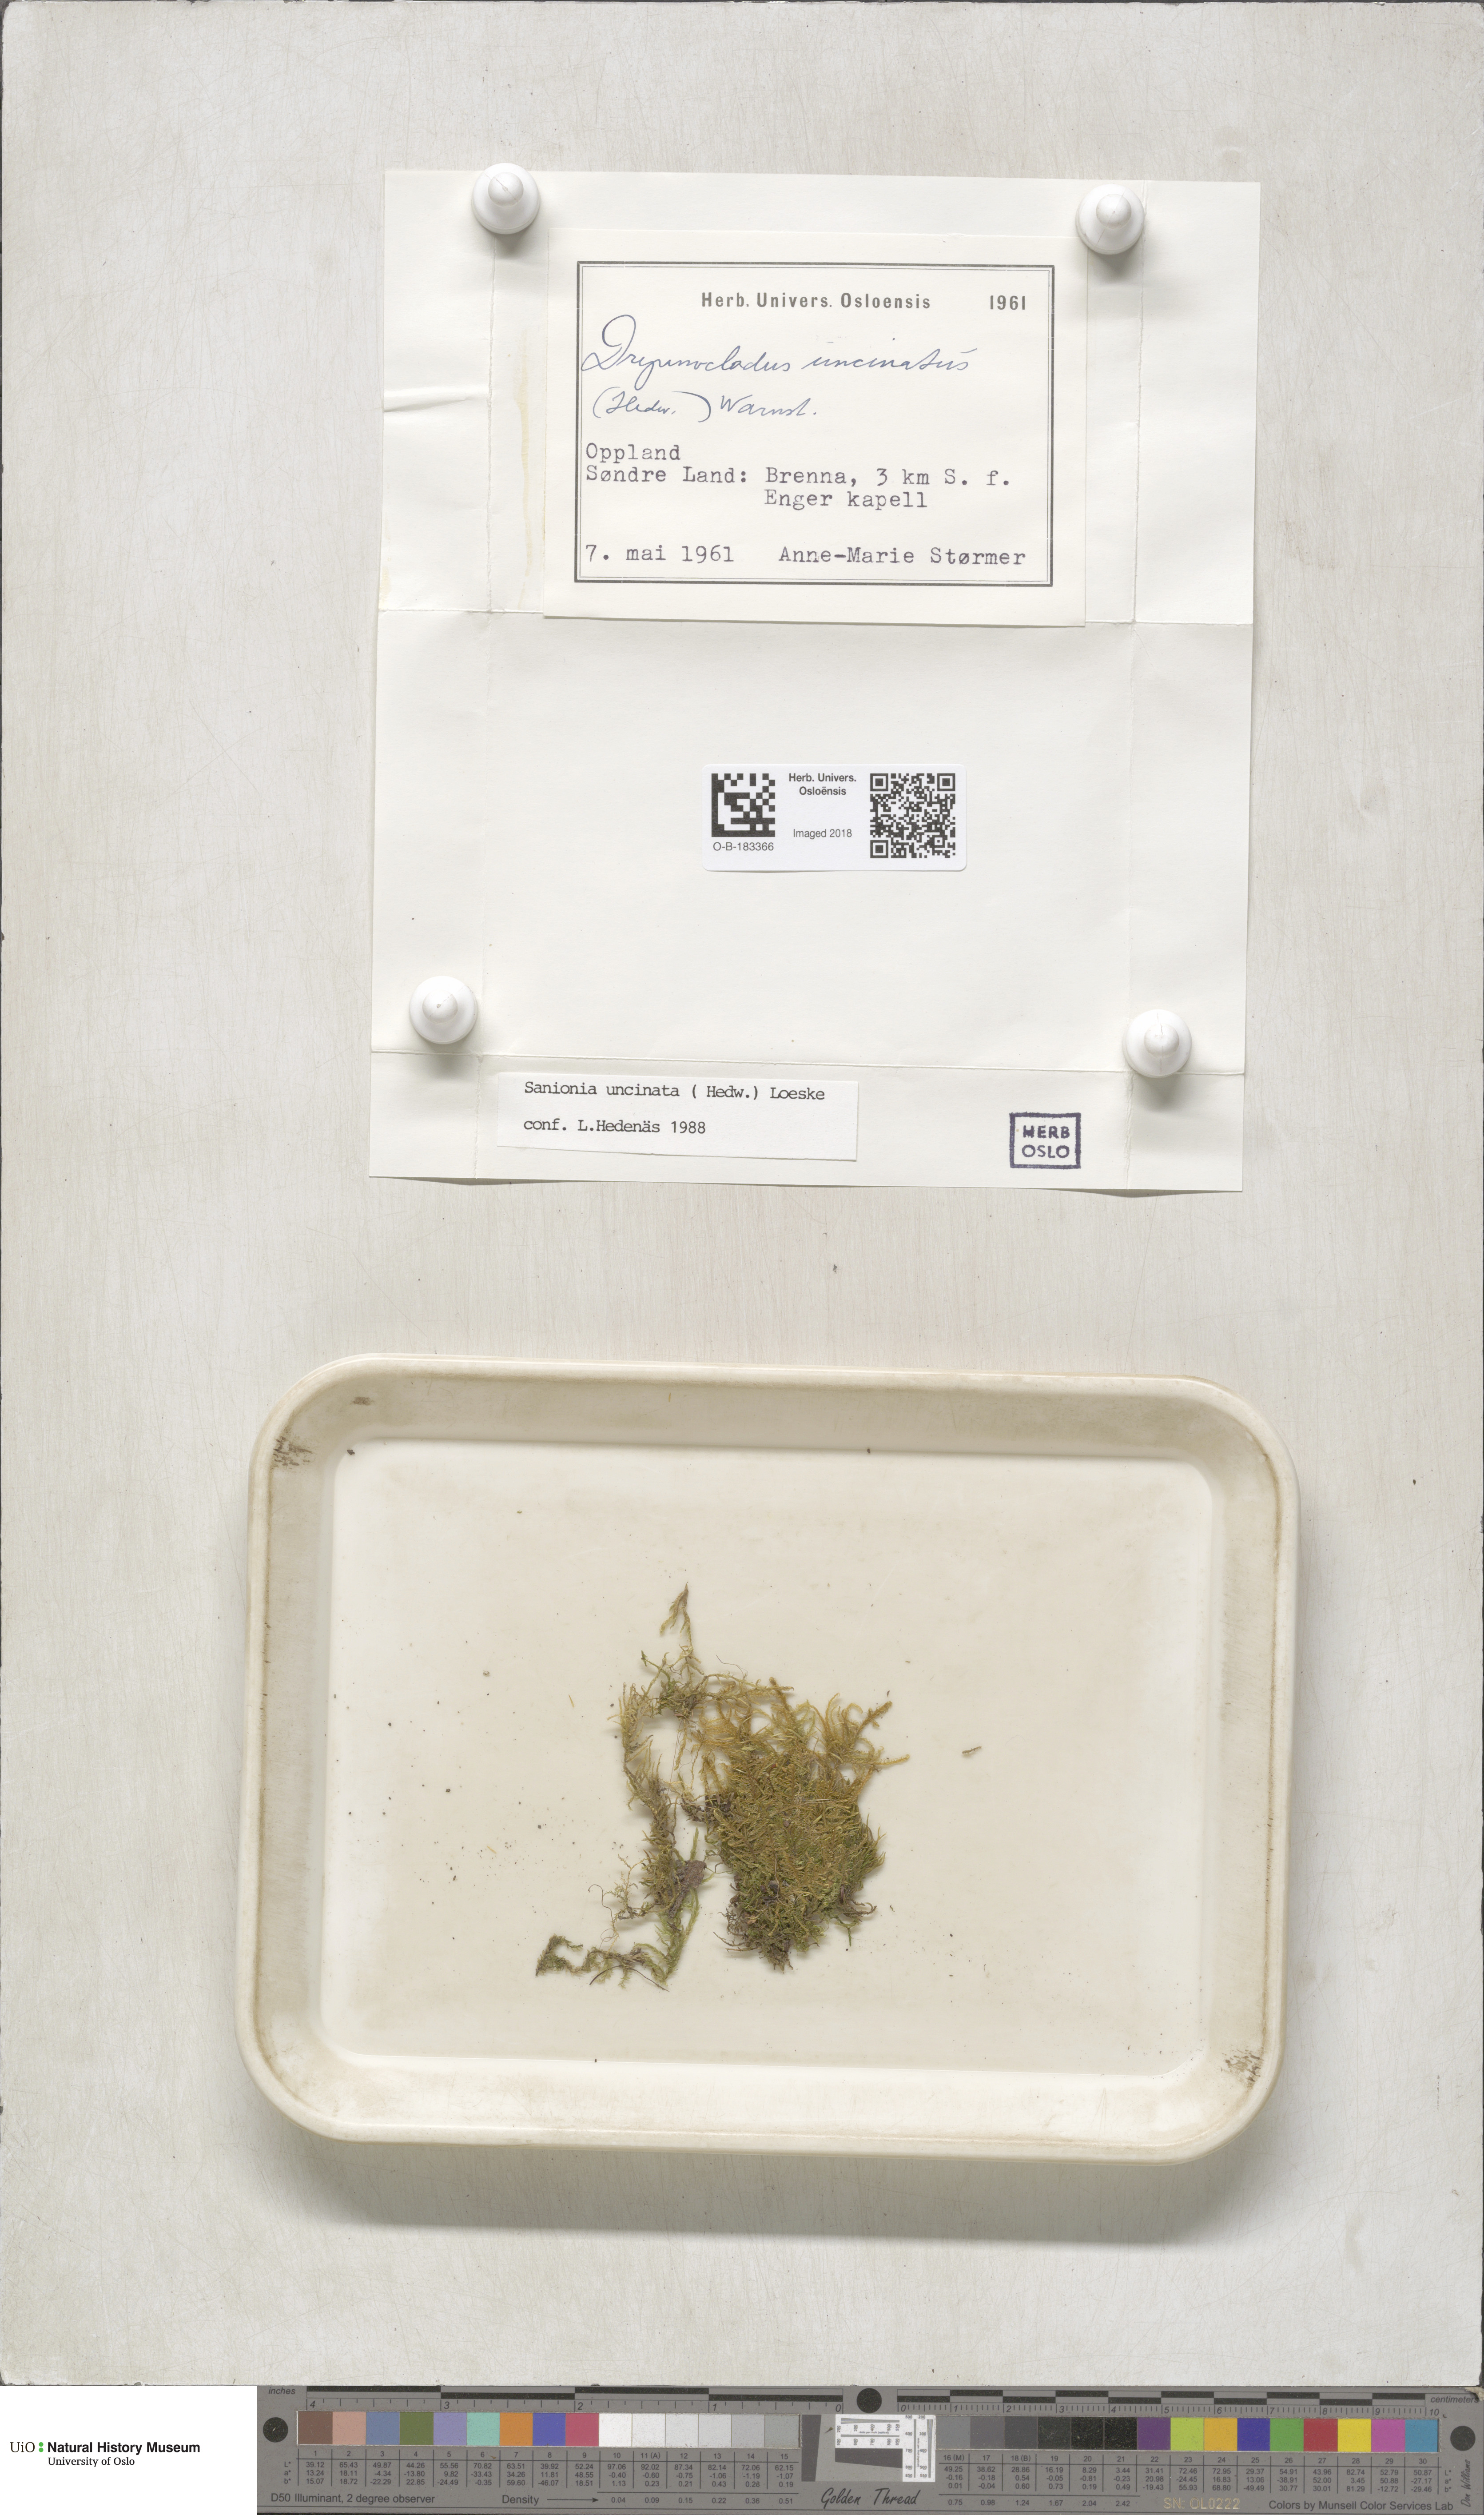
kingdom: Plantae
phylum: Bryophyta
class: Bryopsida
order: Hypnales
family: Scorpidiaceae
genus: Sanionia
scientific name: Sanionia uncinata
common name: Sickle moss
